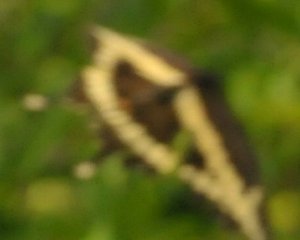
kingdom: Animalia
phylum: Arthropoda
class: Insecta
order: Lepidoptera
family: Papilionidae
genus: Papilio
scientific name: Papilio cresphontes
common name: Eastern Giant Swallowtail
